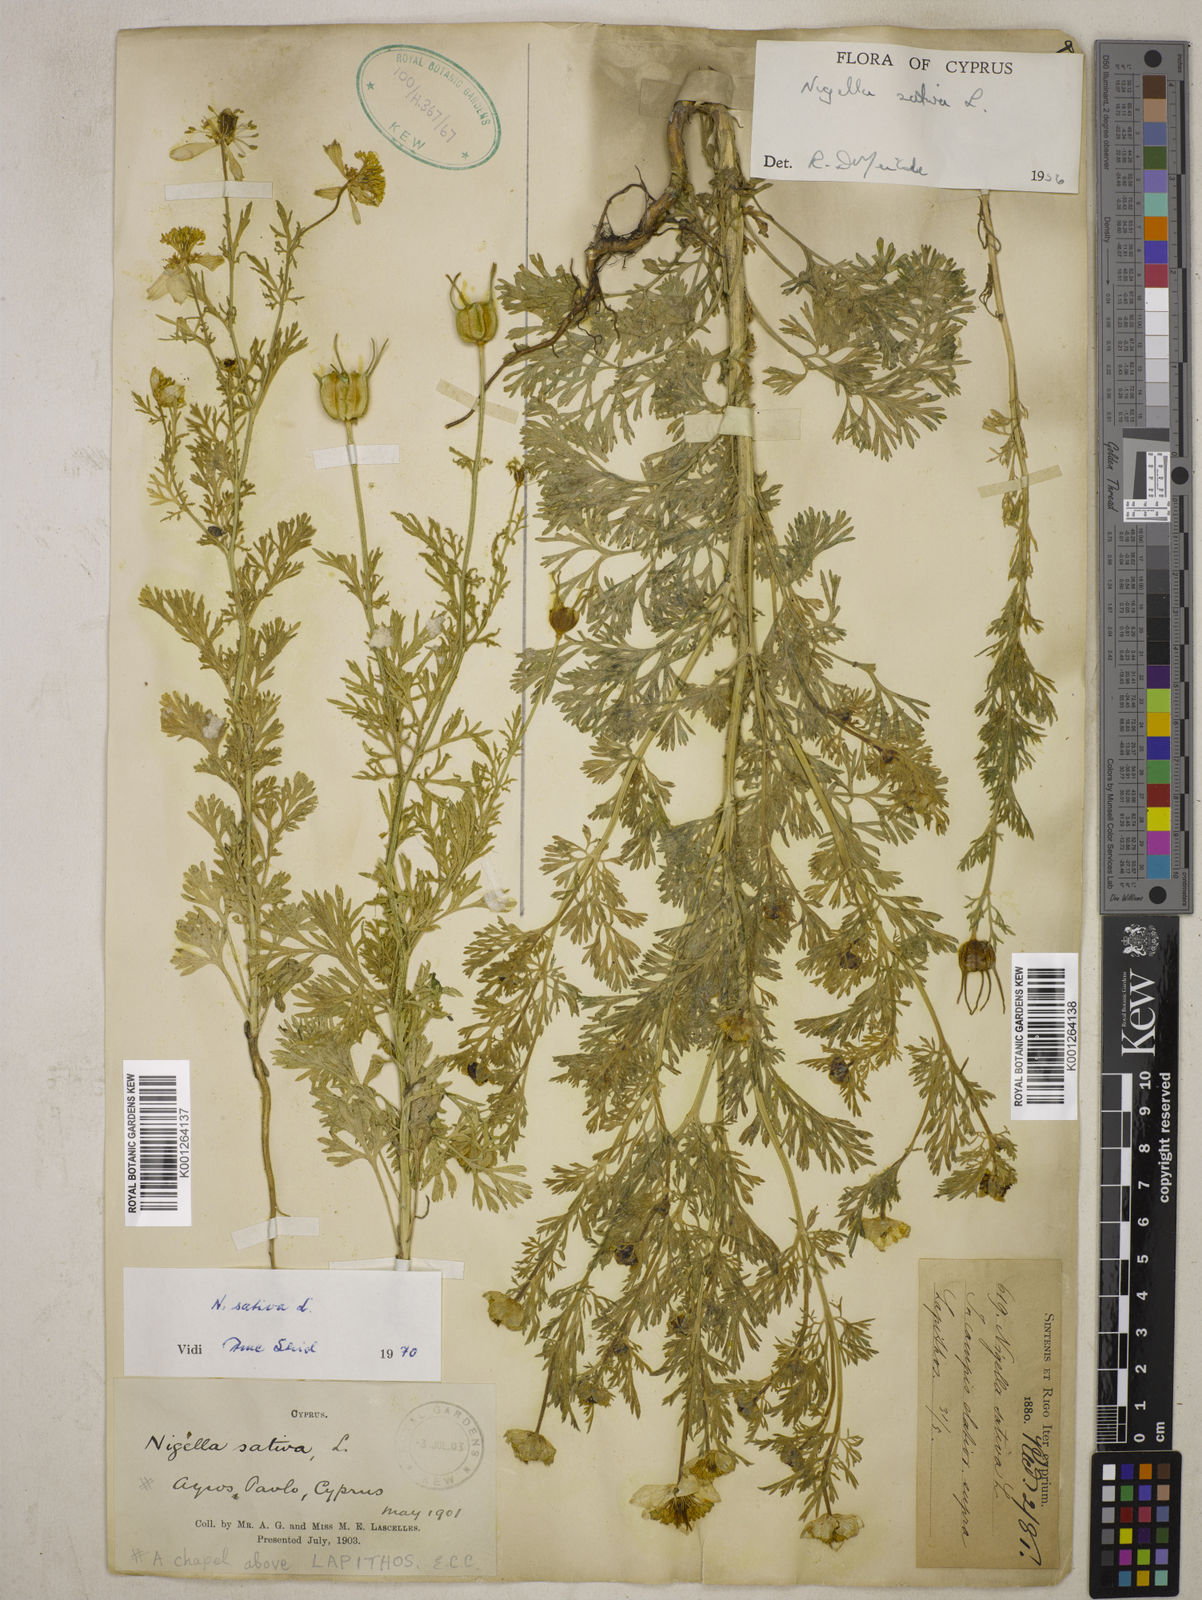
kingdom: Plantae
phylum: Tracheophyta
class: Magnoliopsida
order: Ranunculales
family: Ranunculaceae
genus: Nigella
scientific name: Nigella sativa
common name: Black-cumin
